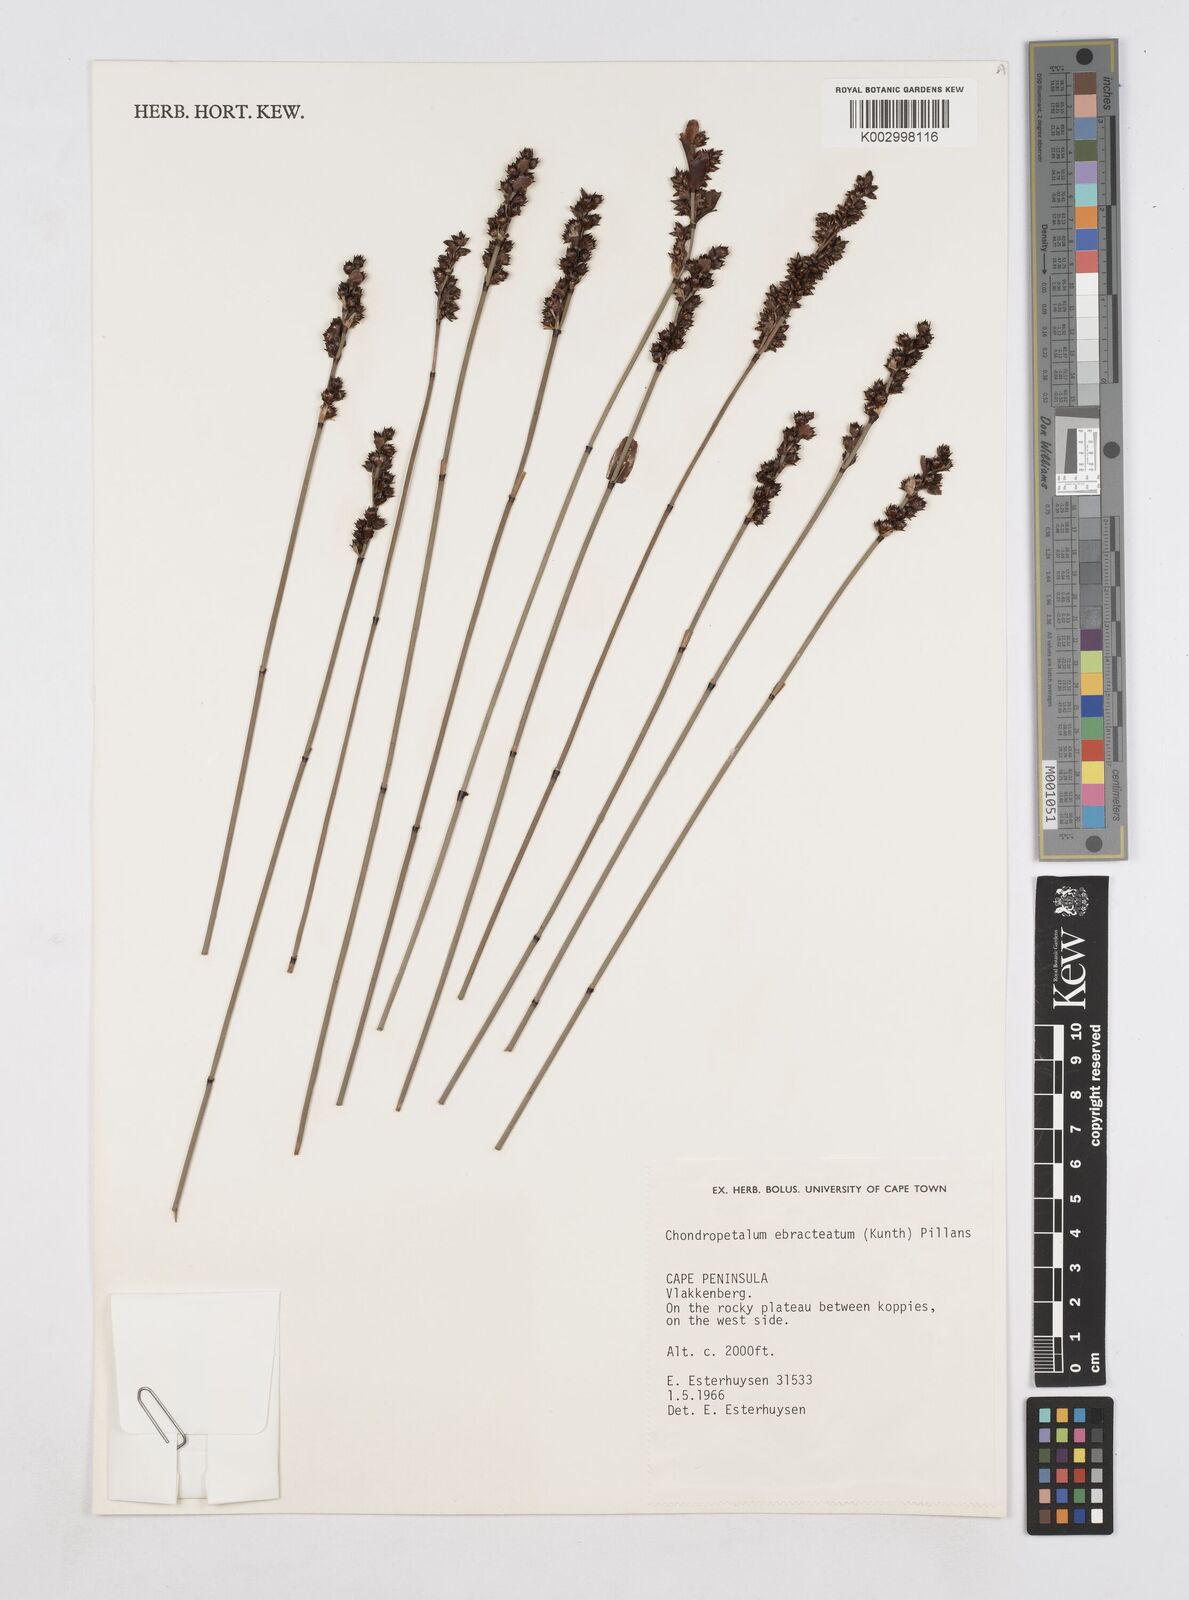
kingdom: Plantae
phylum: Tracheophyta
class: Liliopsida
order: Poales
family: Restionaceae
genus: Elegia
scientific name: Elegia ebracteata
